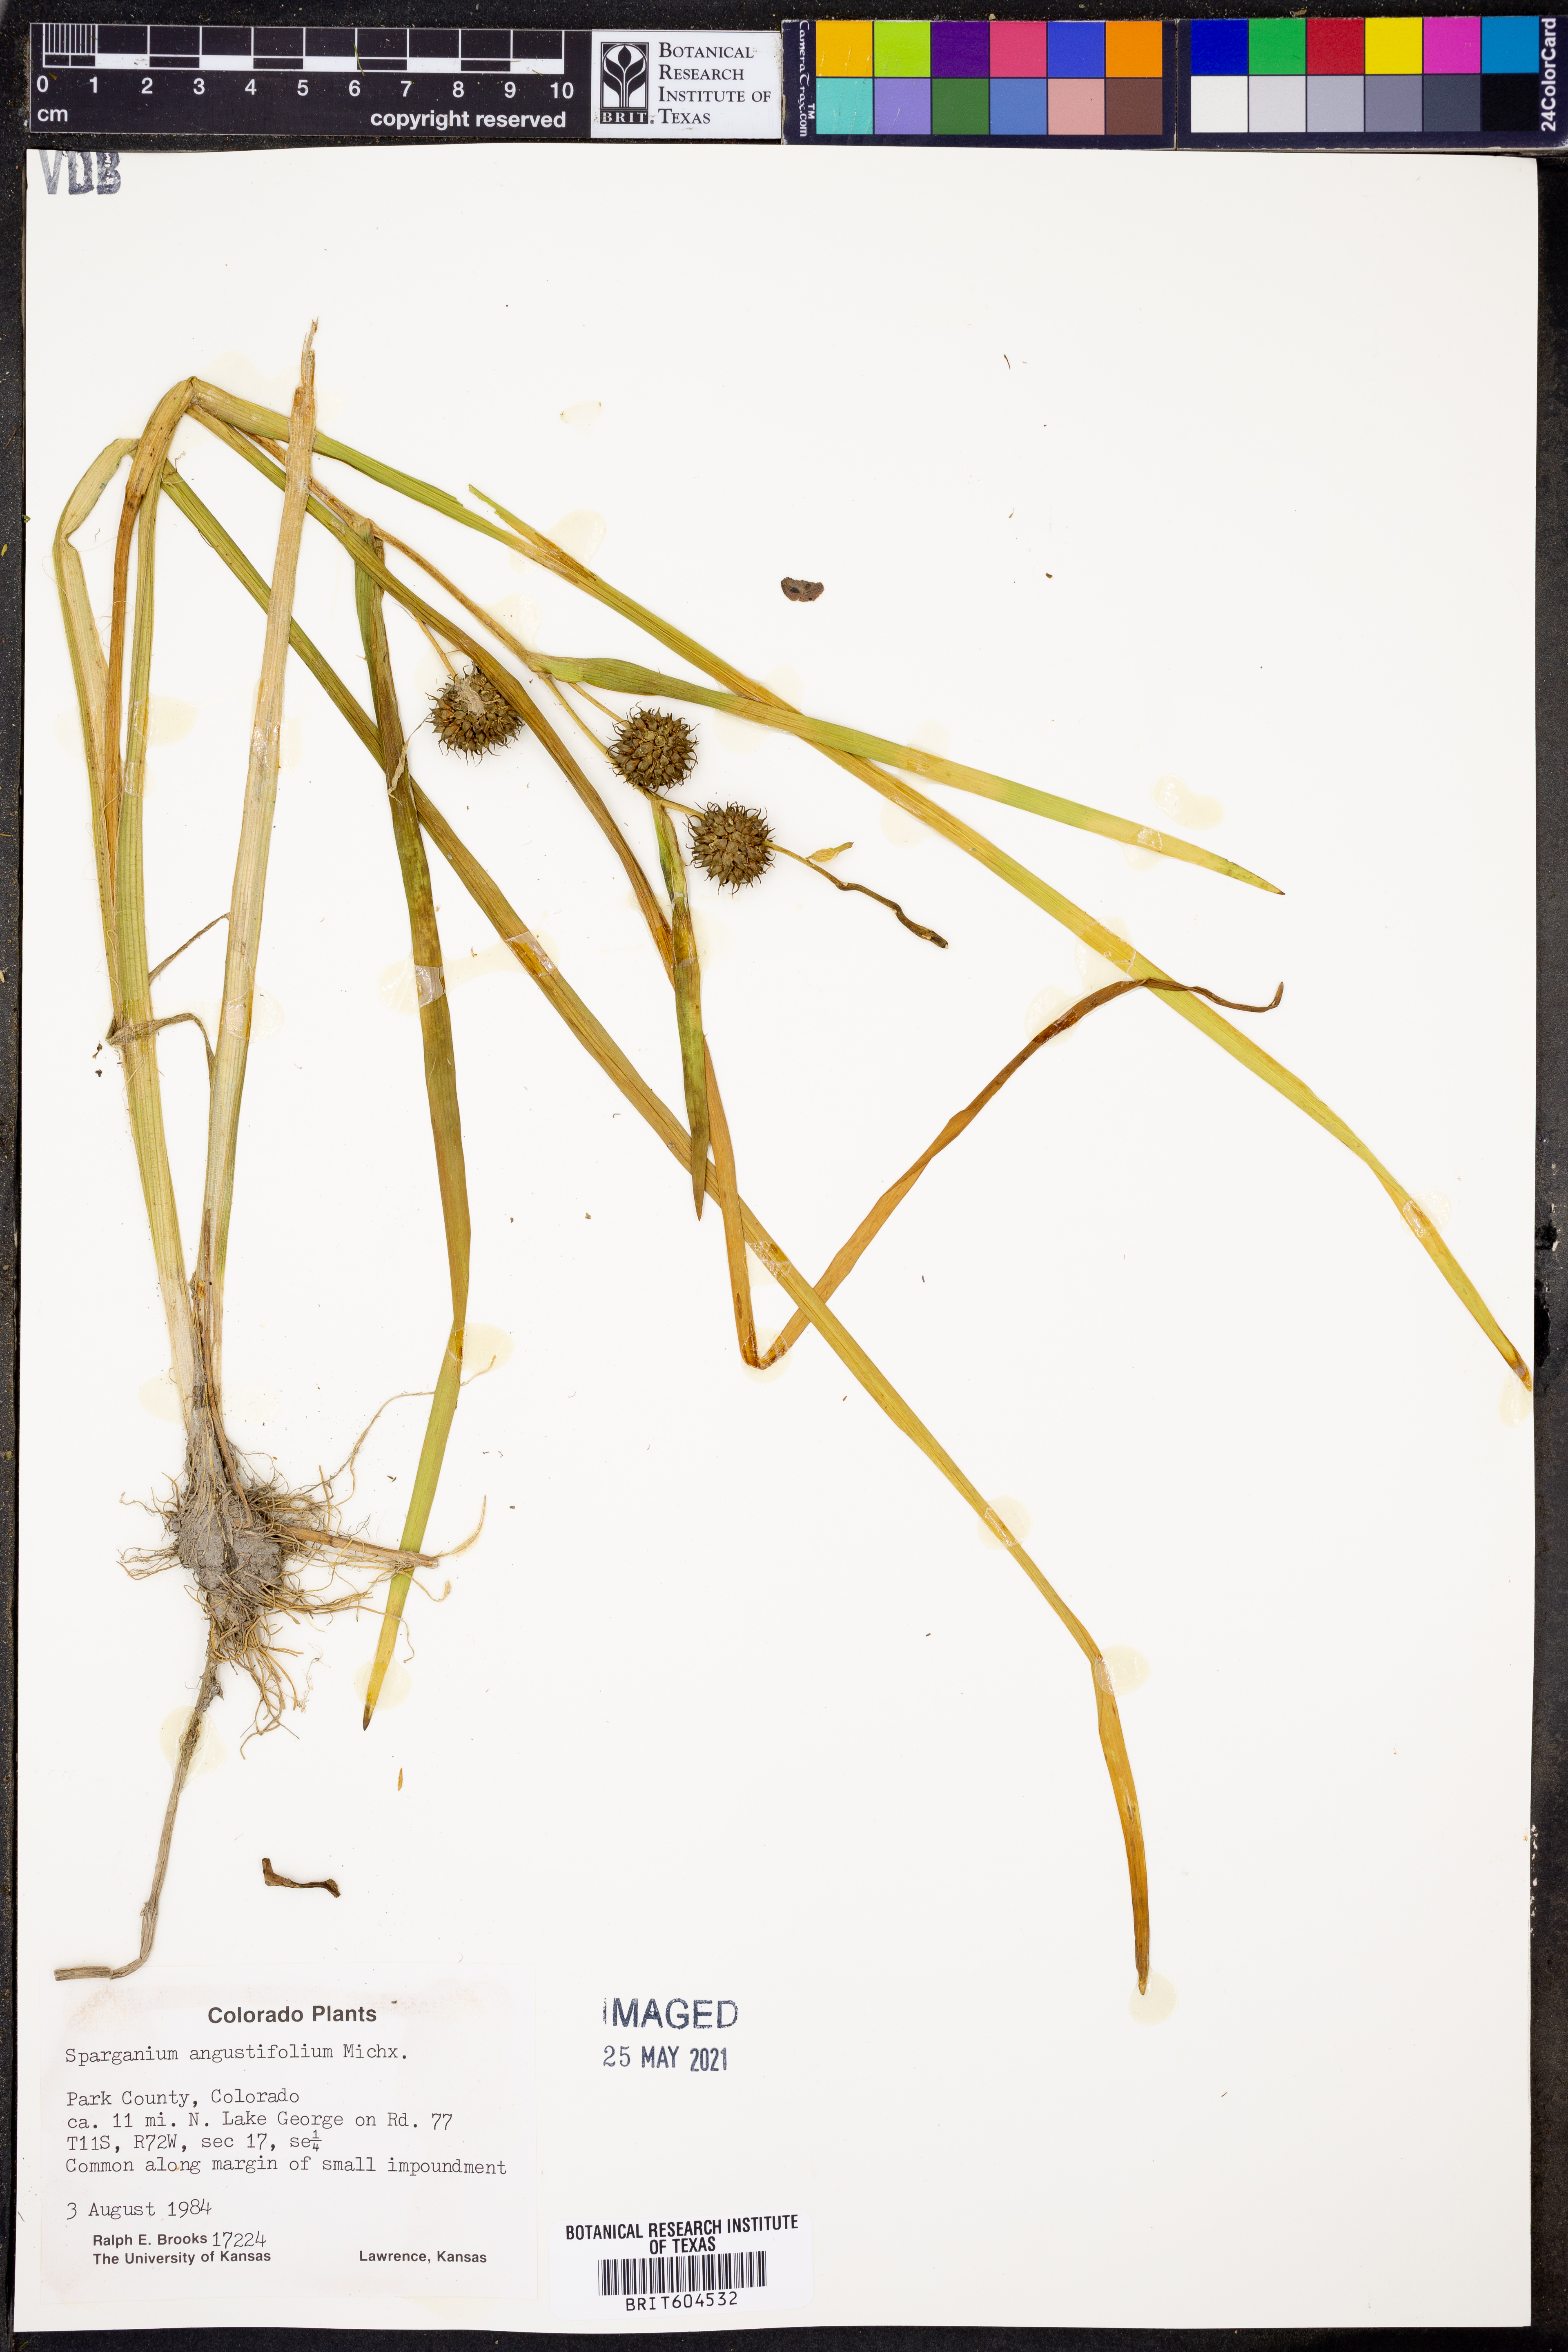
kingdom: Plantae
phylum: Tracheophyta
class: Liliopsida
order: Poales
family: Typhaceae
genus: Sparganium
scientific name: Sparganium angustifolium
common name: Floating bur-reed
